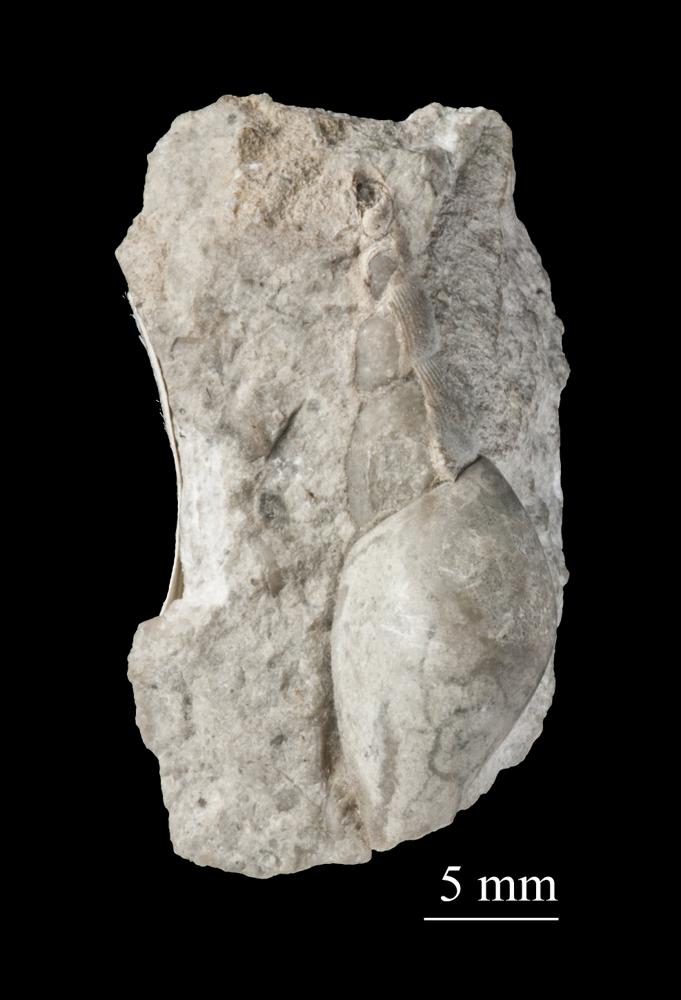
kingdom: Animalia
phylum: Mollusca
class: Gastropoda
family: Bellerophontidae
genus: Bellerophon
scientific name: Bellerophon
